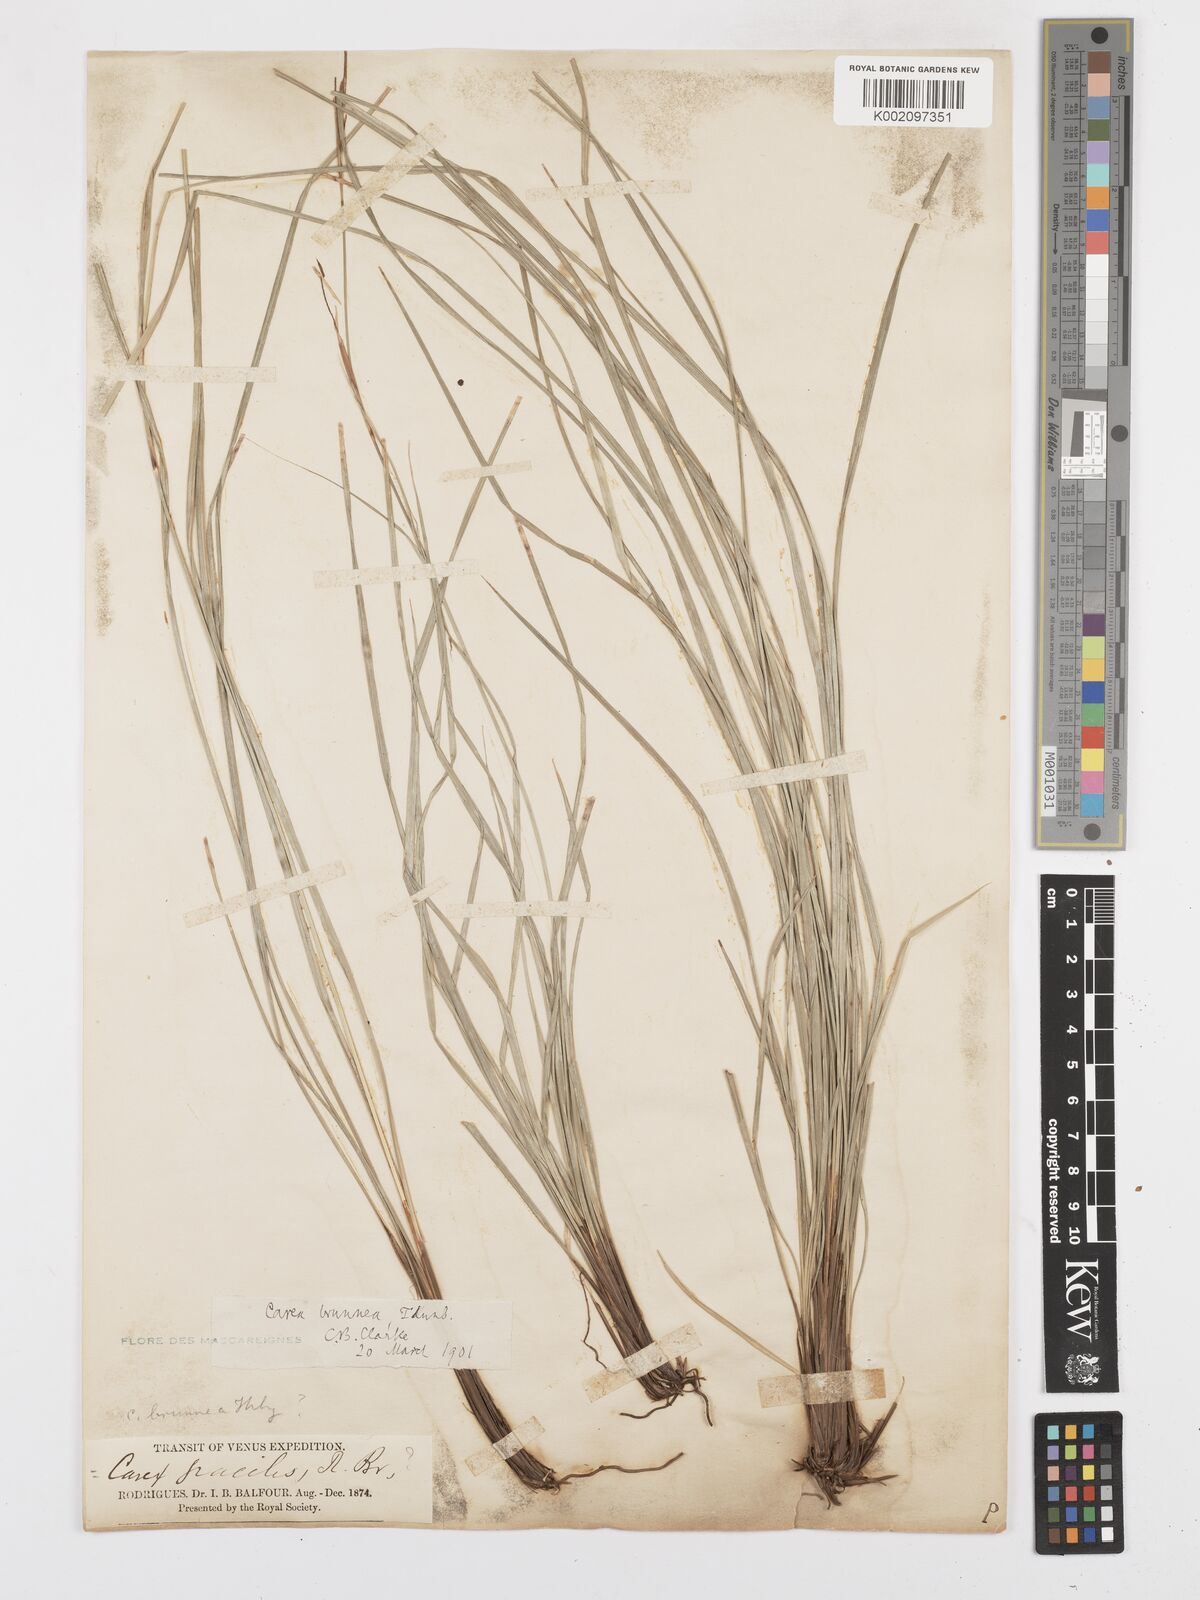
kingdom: Plantae
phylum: Tracheophyta
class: Liliopsida
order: Poales
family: Cyperaceae
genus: Carex
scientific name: Carex brunnea
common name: Greater brown sedge
